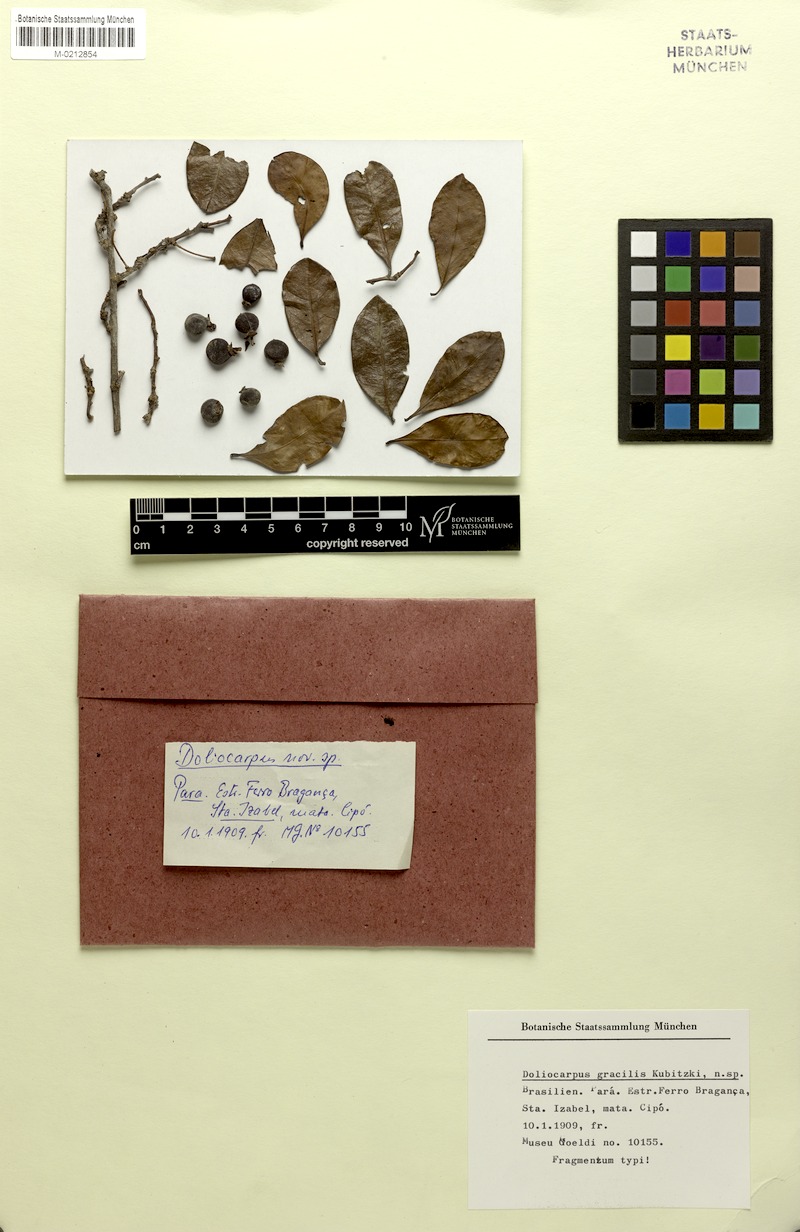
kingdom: Plantae
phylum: Tracheophyta
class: Magnoliopsida
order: Dilleniales
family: Dilleniaceae
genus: Doliocarpus
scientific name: Doliocarpus gracilis
